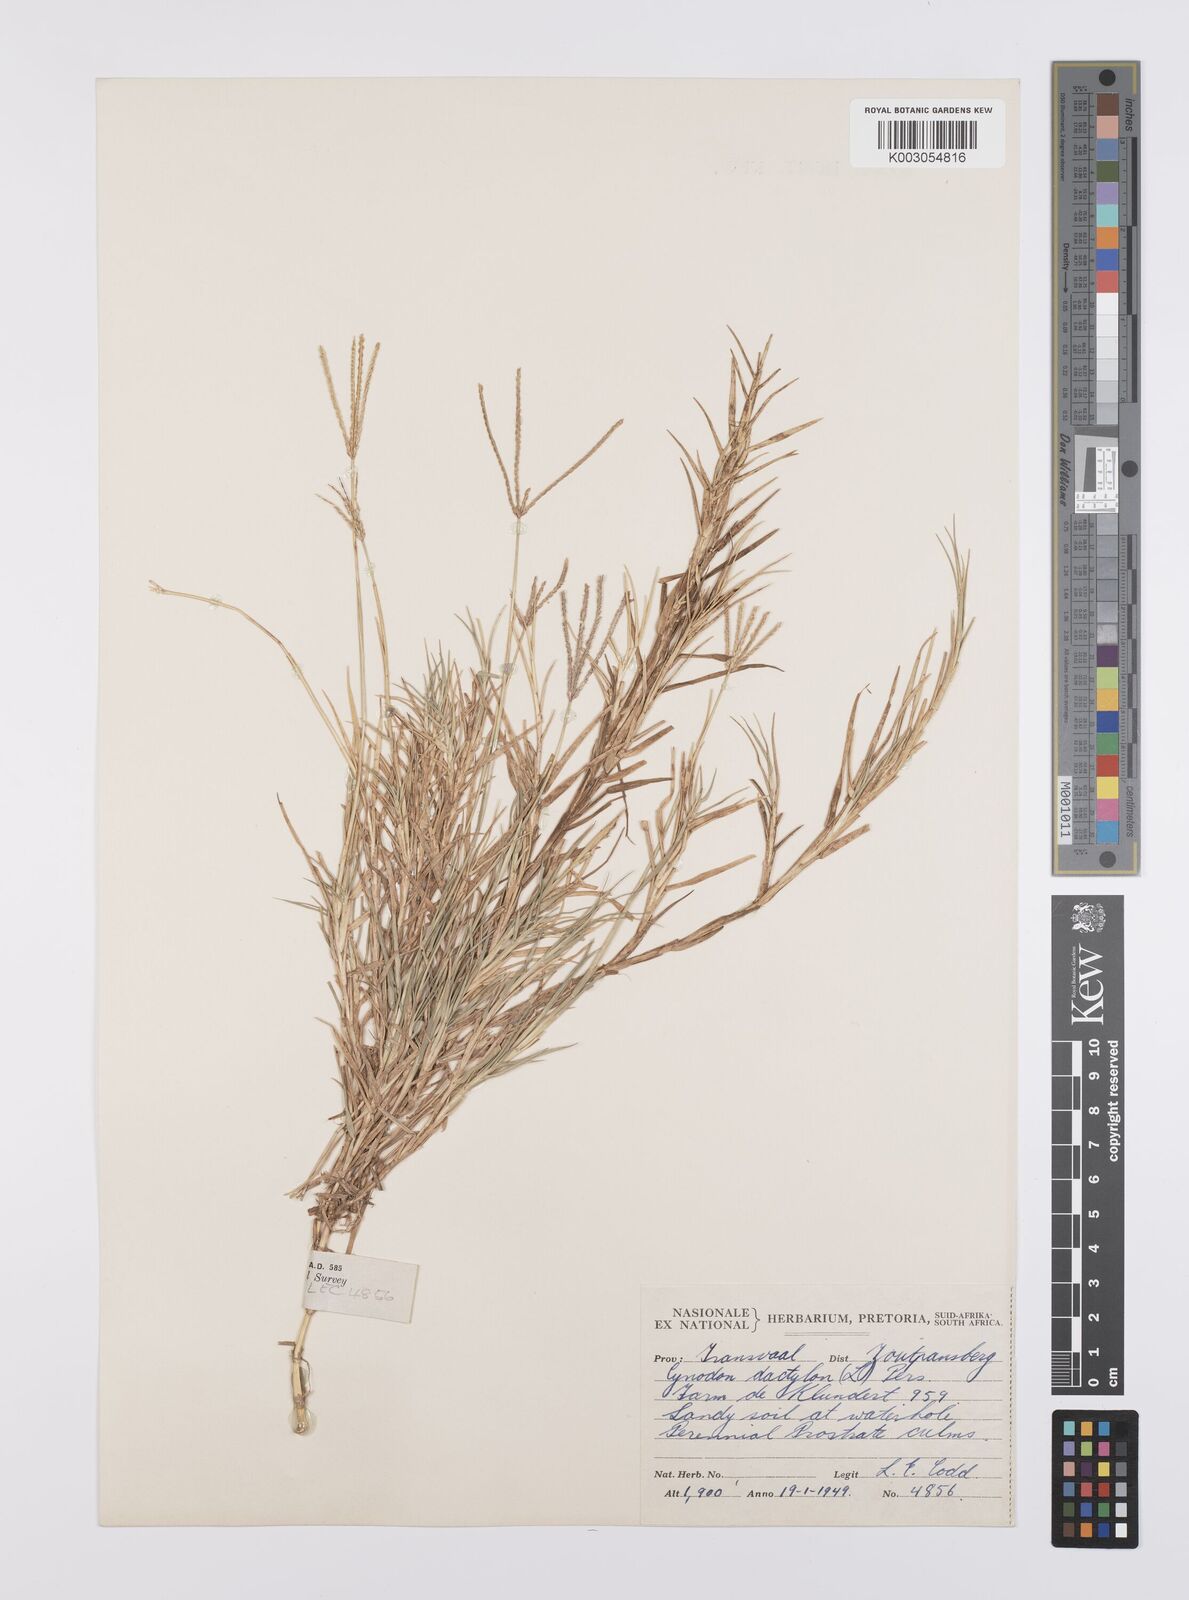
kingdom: Plantae
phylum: Tracheophyta
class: Liliopsida
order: Poales
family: Poaceae
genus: Cynodon
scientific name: Cynodon dactylon
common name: Bermuda grass
